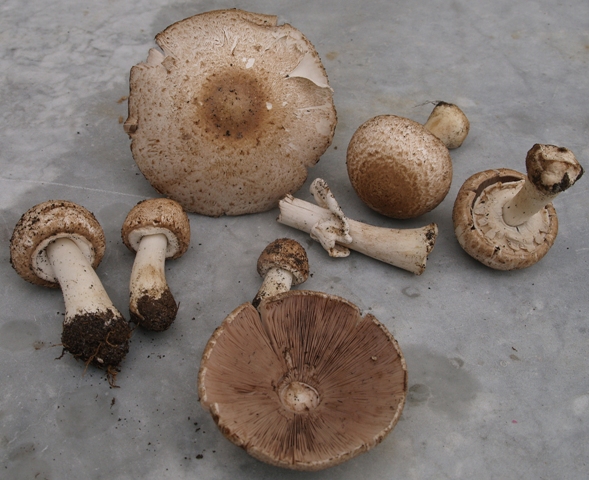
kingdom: Fungi
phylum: Basidiomycota
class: Agaricomycetes
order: Agaricales
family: Agaricaceae
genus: Agaricus
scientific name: Agaricus impudicus
